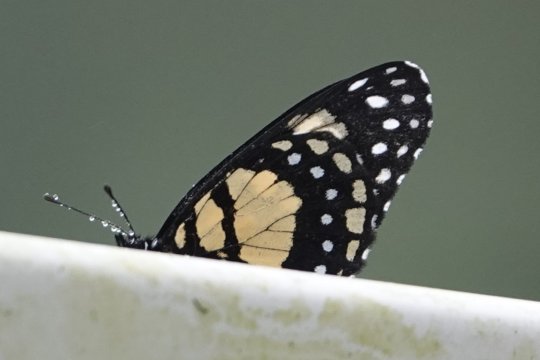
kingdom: Animalia
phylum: Arthropoda
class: Insecta
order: Lepidoptera
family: Nymphalidae
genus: Chlosyne
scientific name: Chlosyne narva
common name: Narva Checkerspot
